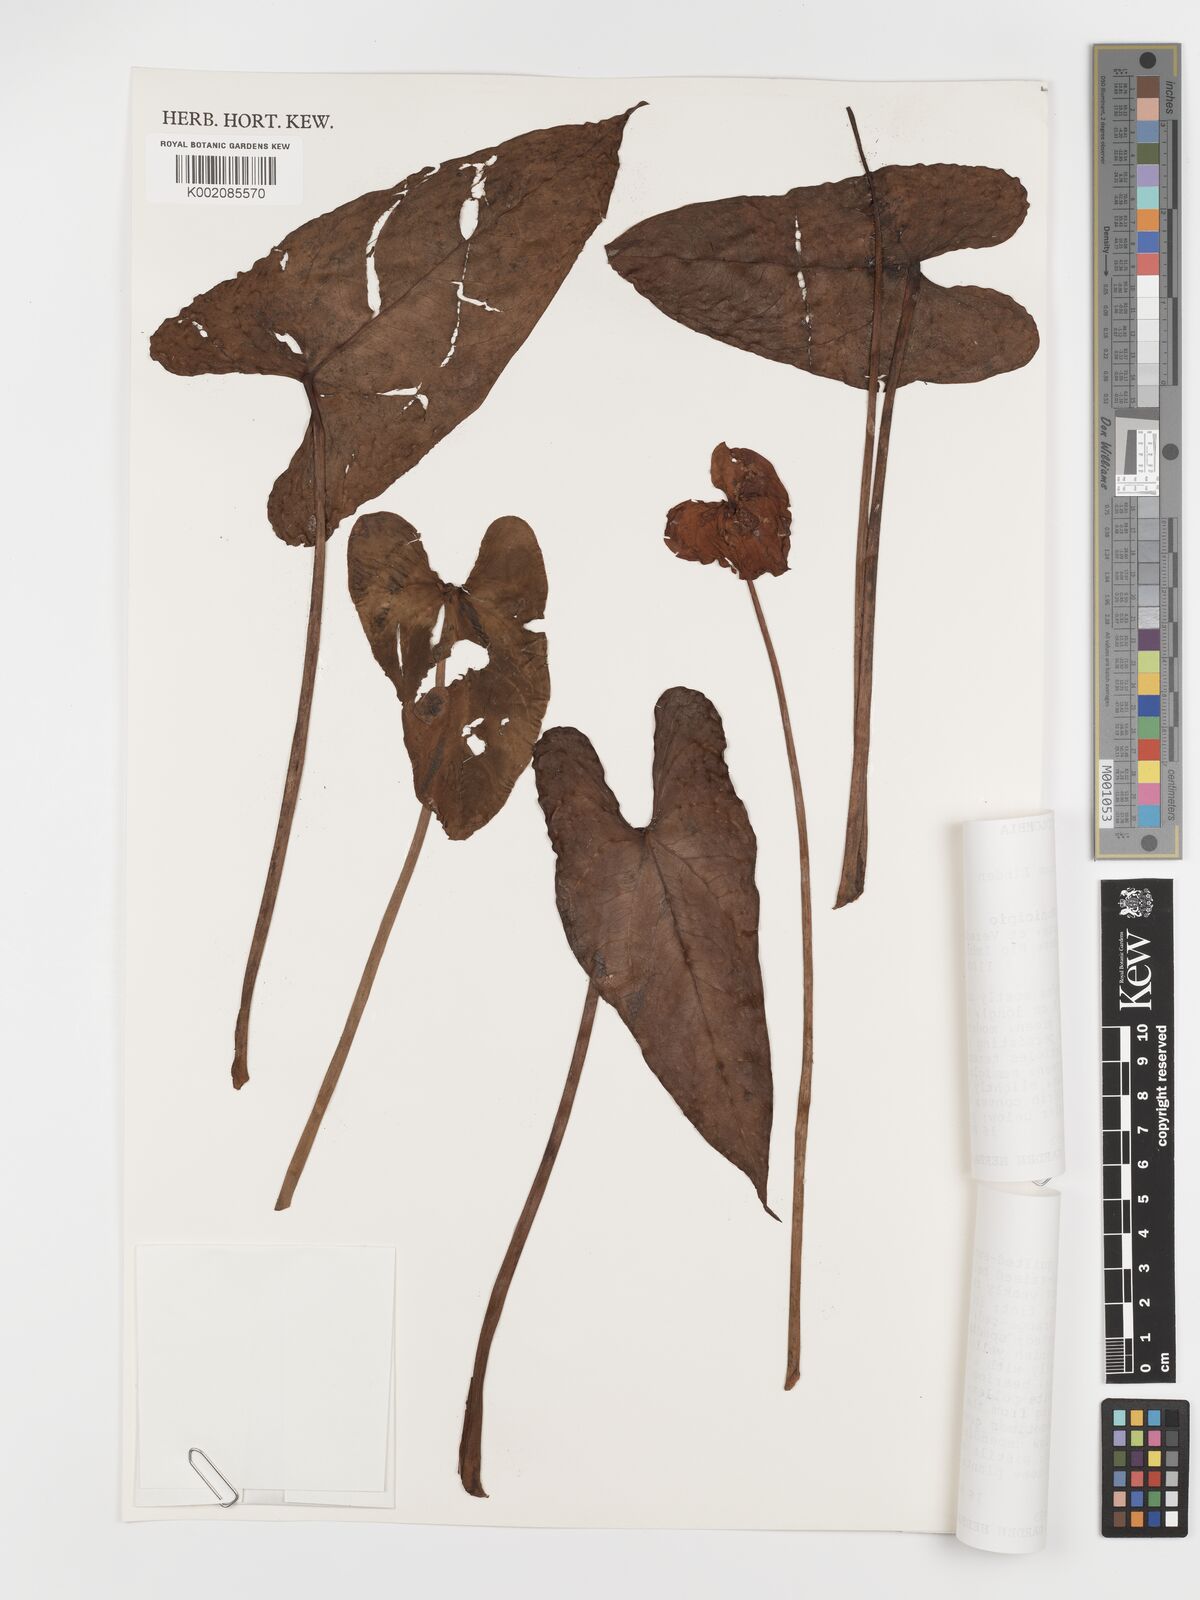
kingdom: Plantae
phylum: Tracheophyta
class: Liliopsida
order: Alismatales
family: Araceae
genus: Anthurium
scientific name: Anthurium andraeanum
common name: Flamingo-flower
